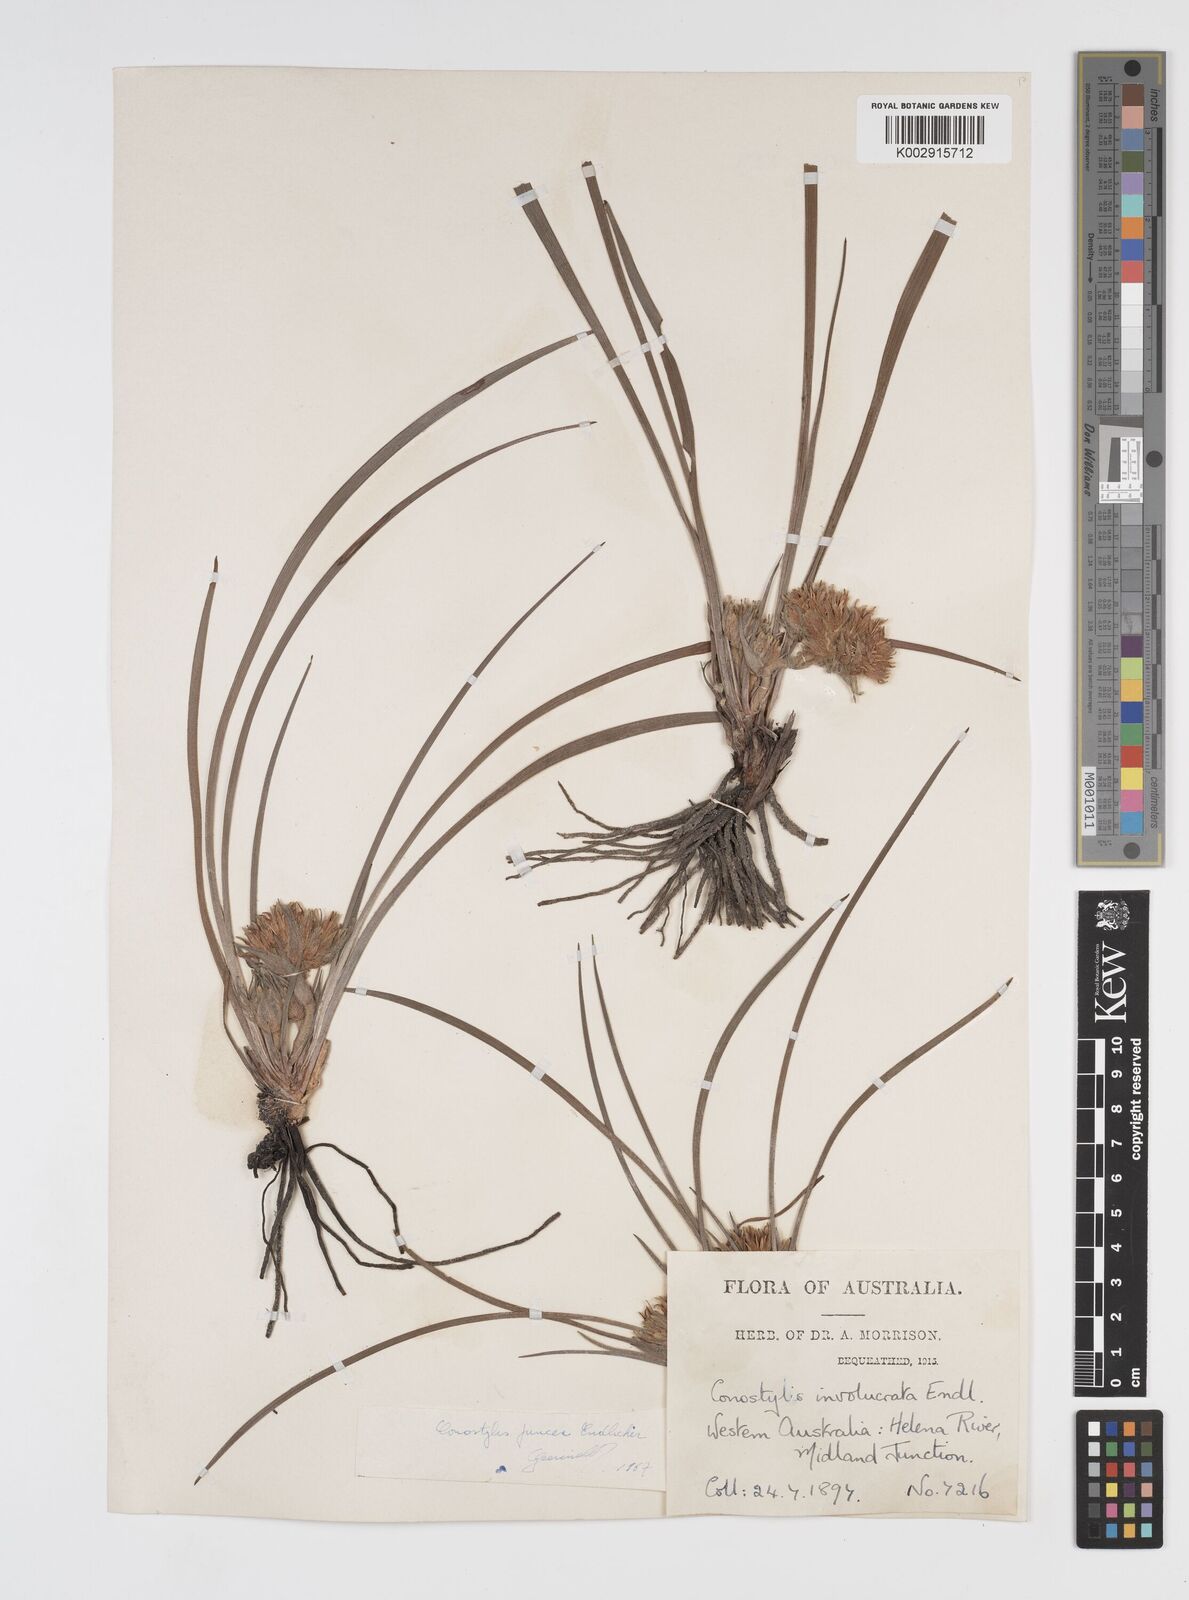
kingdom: Plantae
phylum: Tracheophyta
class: Liliopsida
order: Commelinales
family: Haemodoraceae
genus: Conostylis
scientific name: Conostylis juncea
